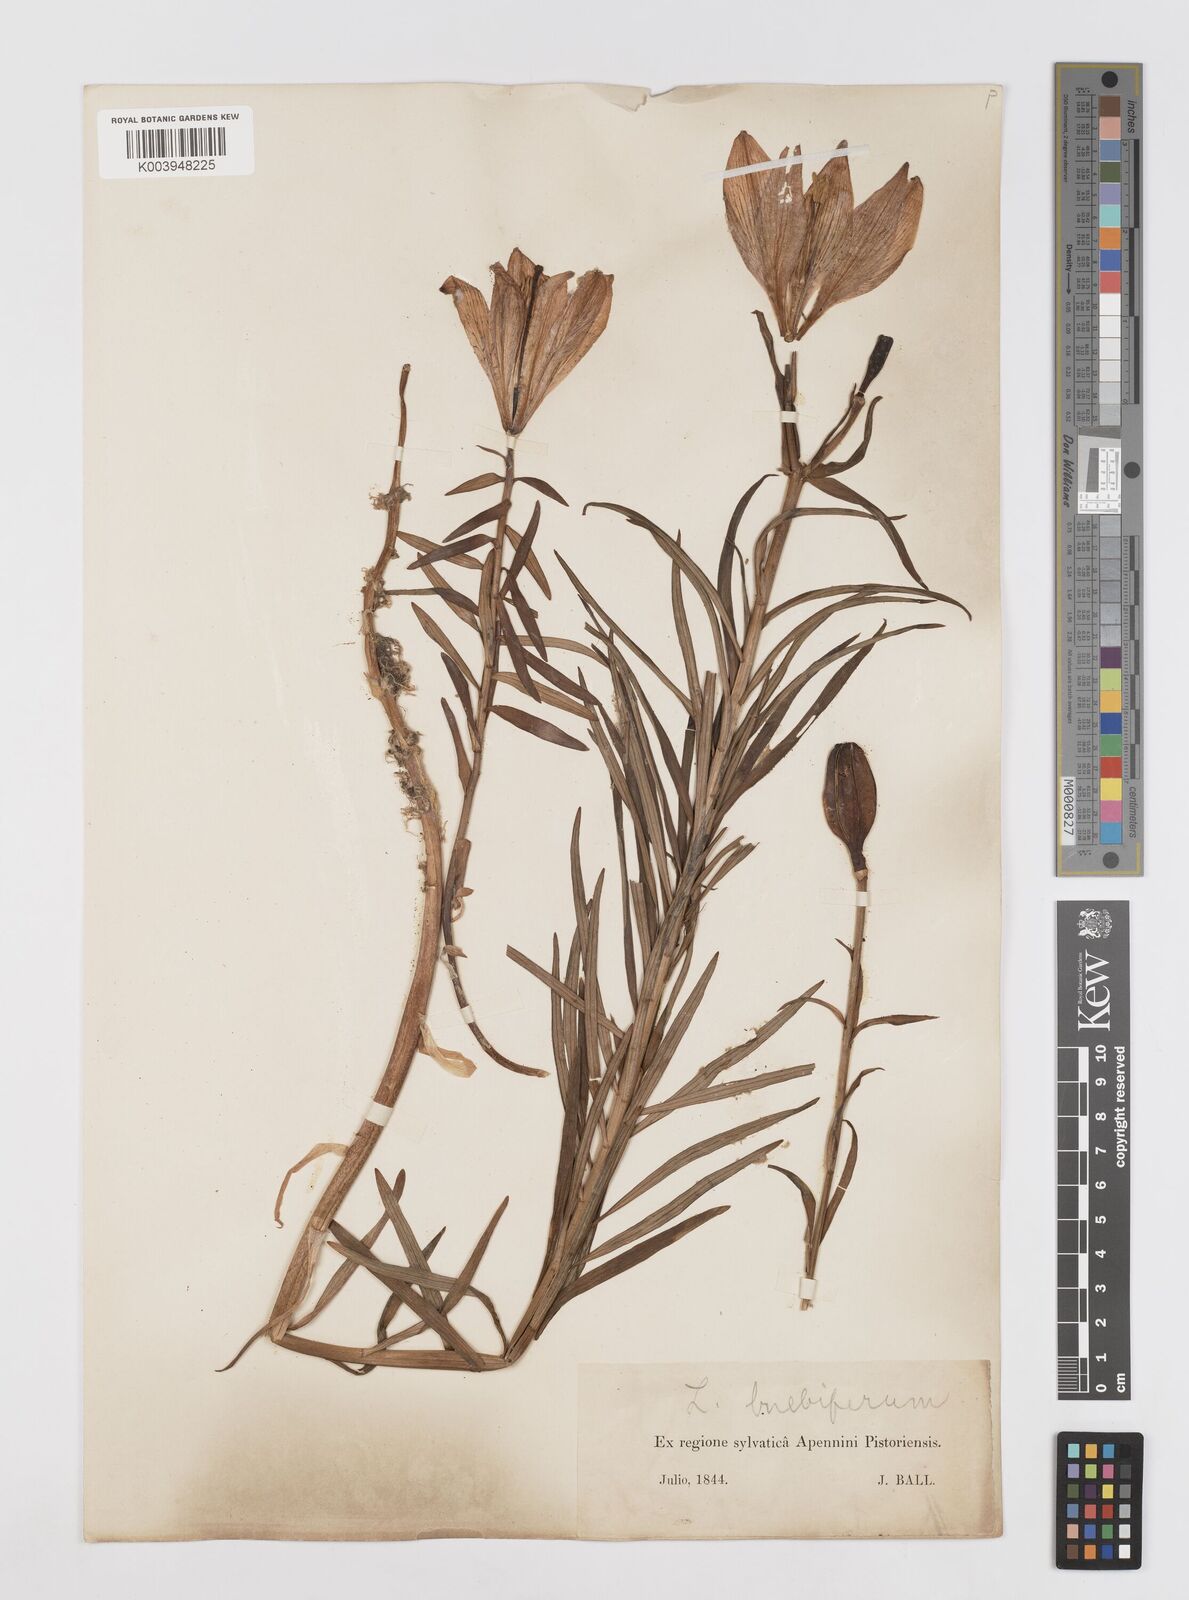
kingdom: Plantae
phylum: Tracheophyta
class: Liliopsida
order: Liliales
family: Liliaceae
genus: Lilium
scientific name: Lilium bulbiferum
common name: Orange lily
